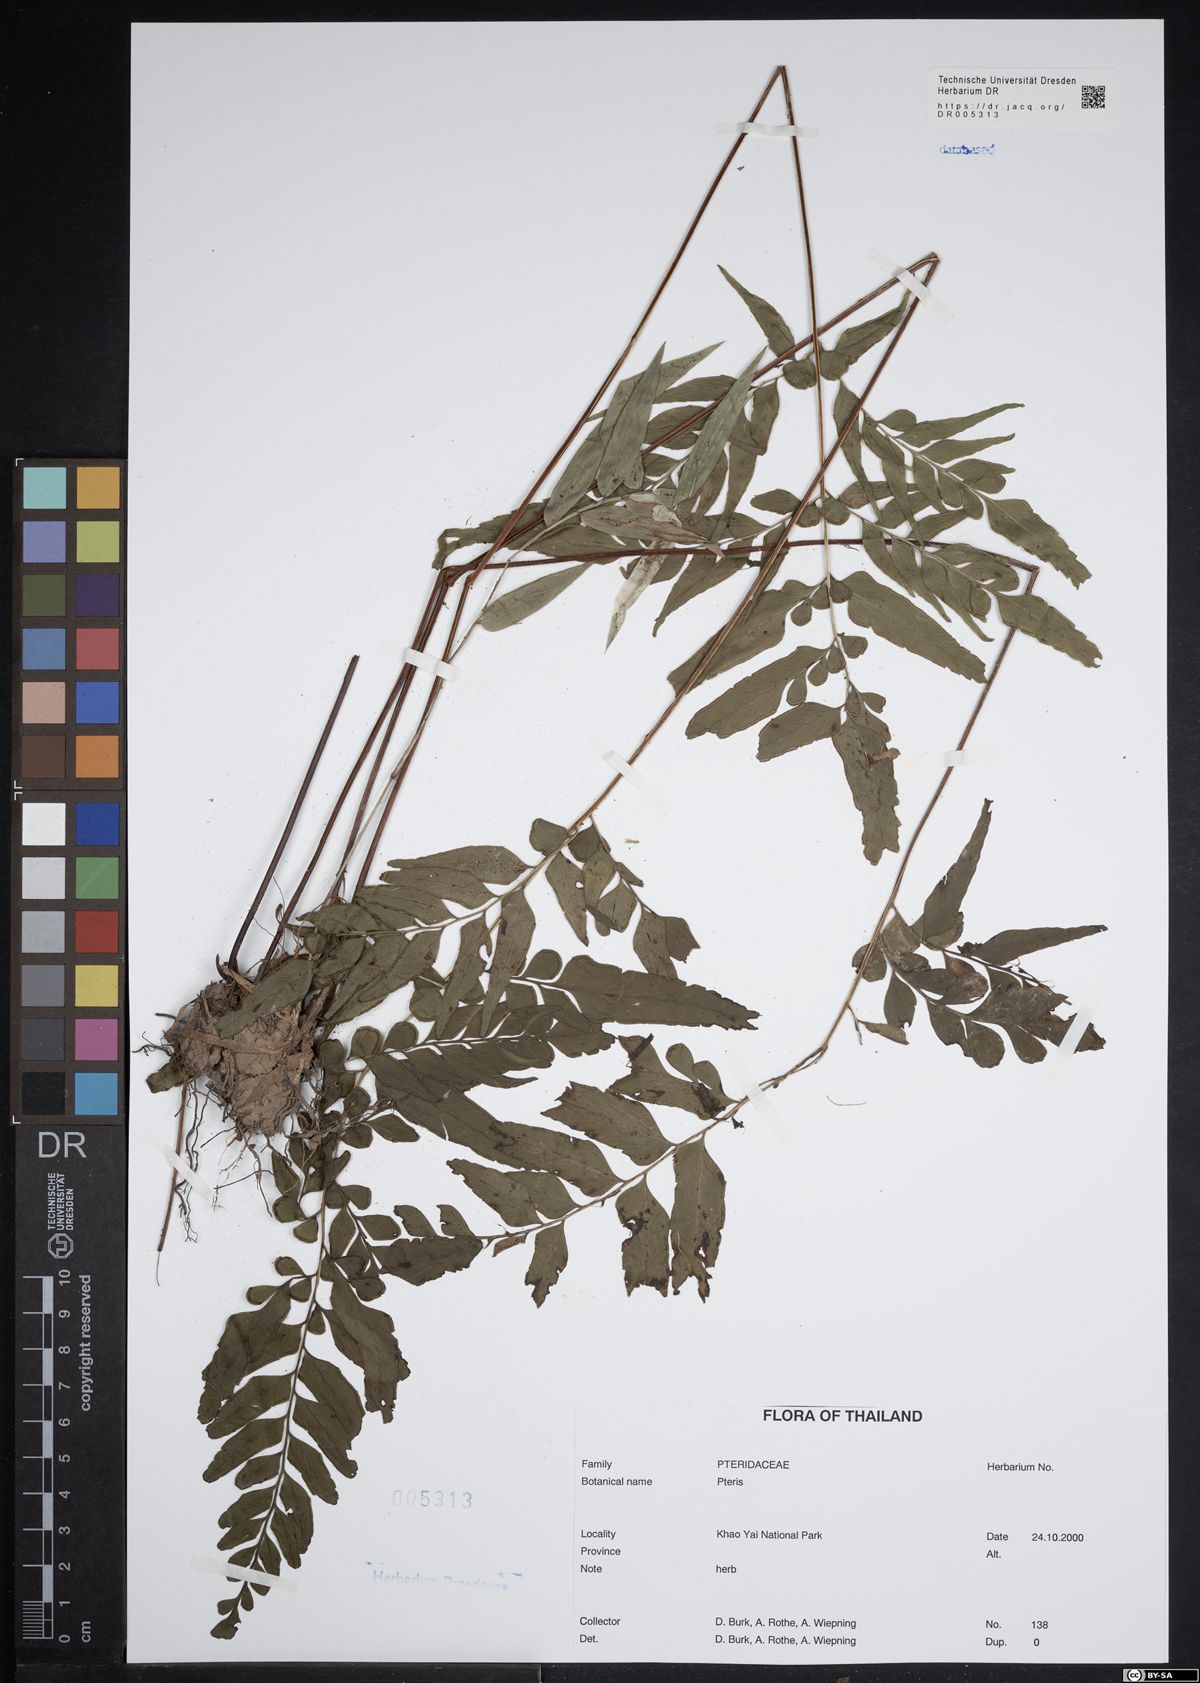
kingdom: Plantae
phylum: Tracheophyta
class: Polypodiopsida
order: Polypodiales
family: Pteridaceae
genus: Pteris
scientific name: Pteris
